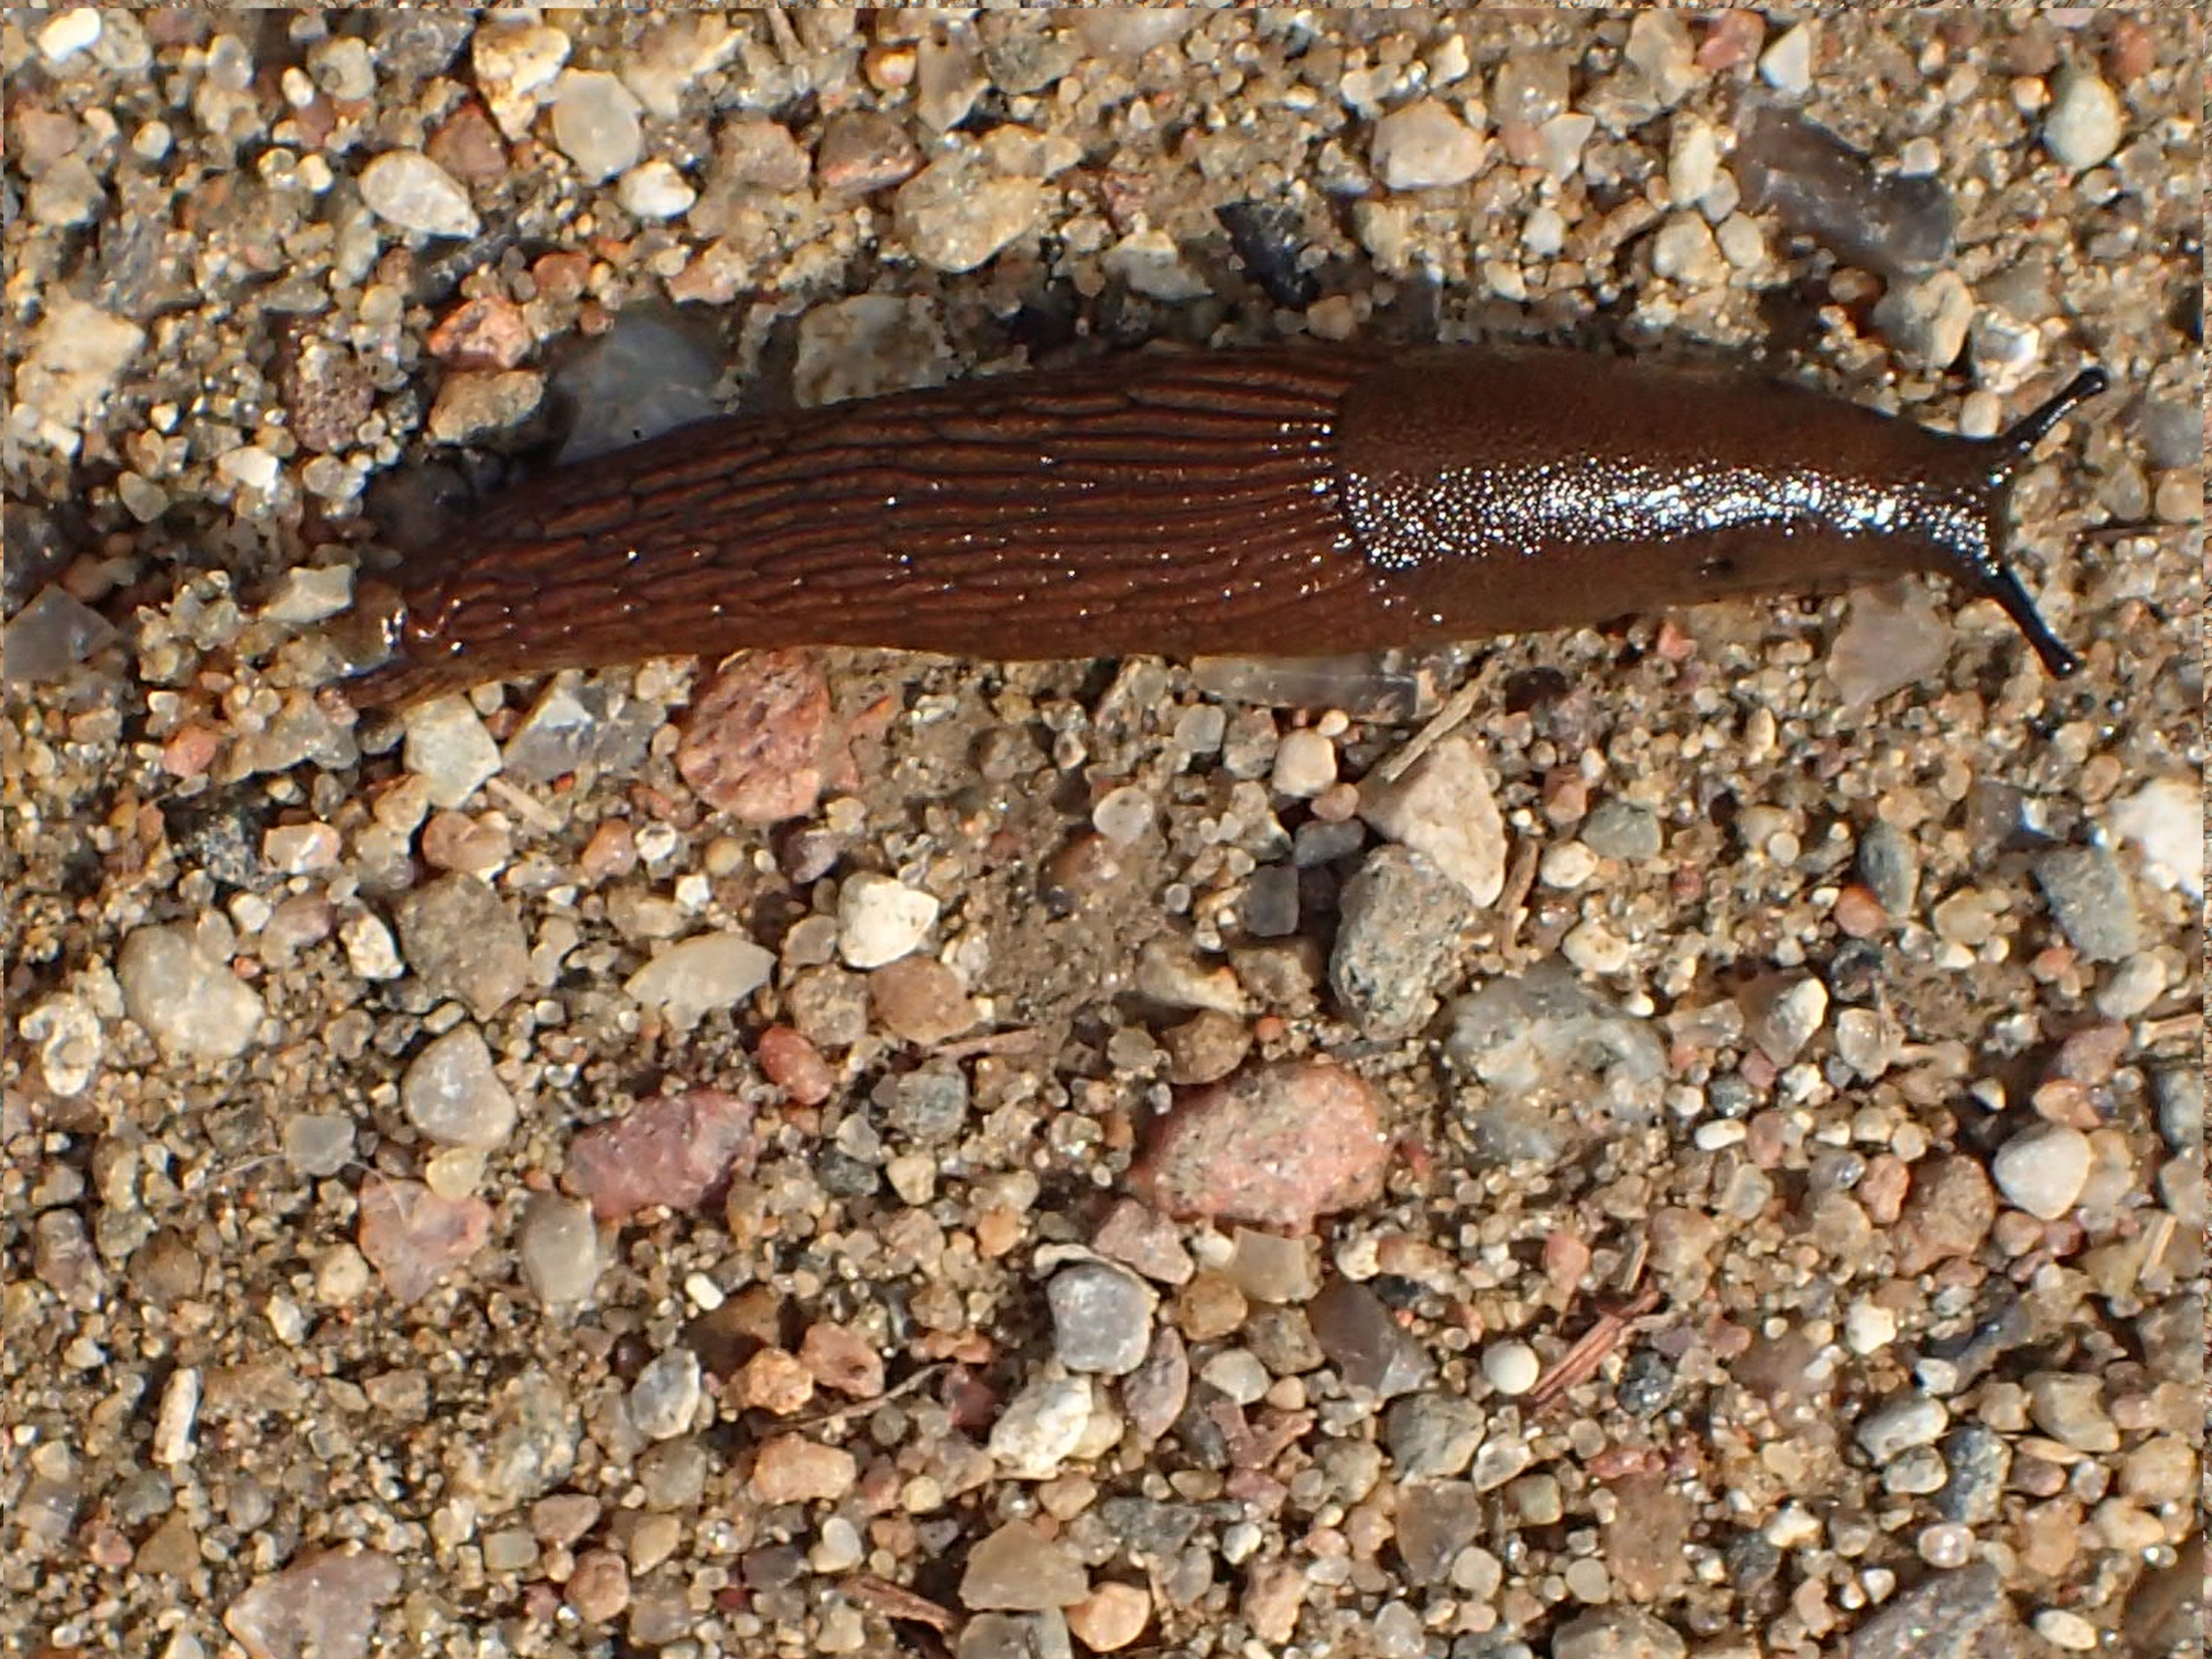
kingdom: Animalia
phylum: Mollusca
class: Gastropoda
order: Stylommatophora
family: Arionidae
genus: Arion
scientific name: Arion vulgaris
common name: Iberisk skovsnegl
